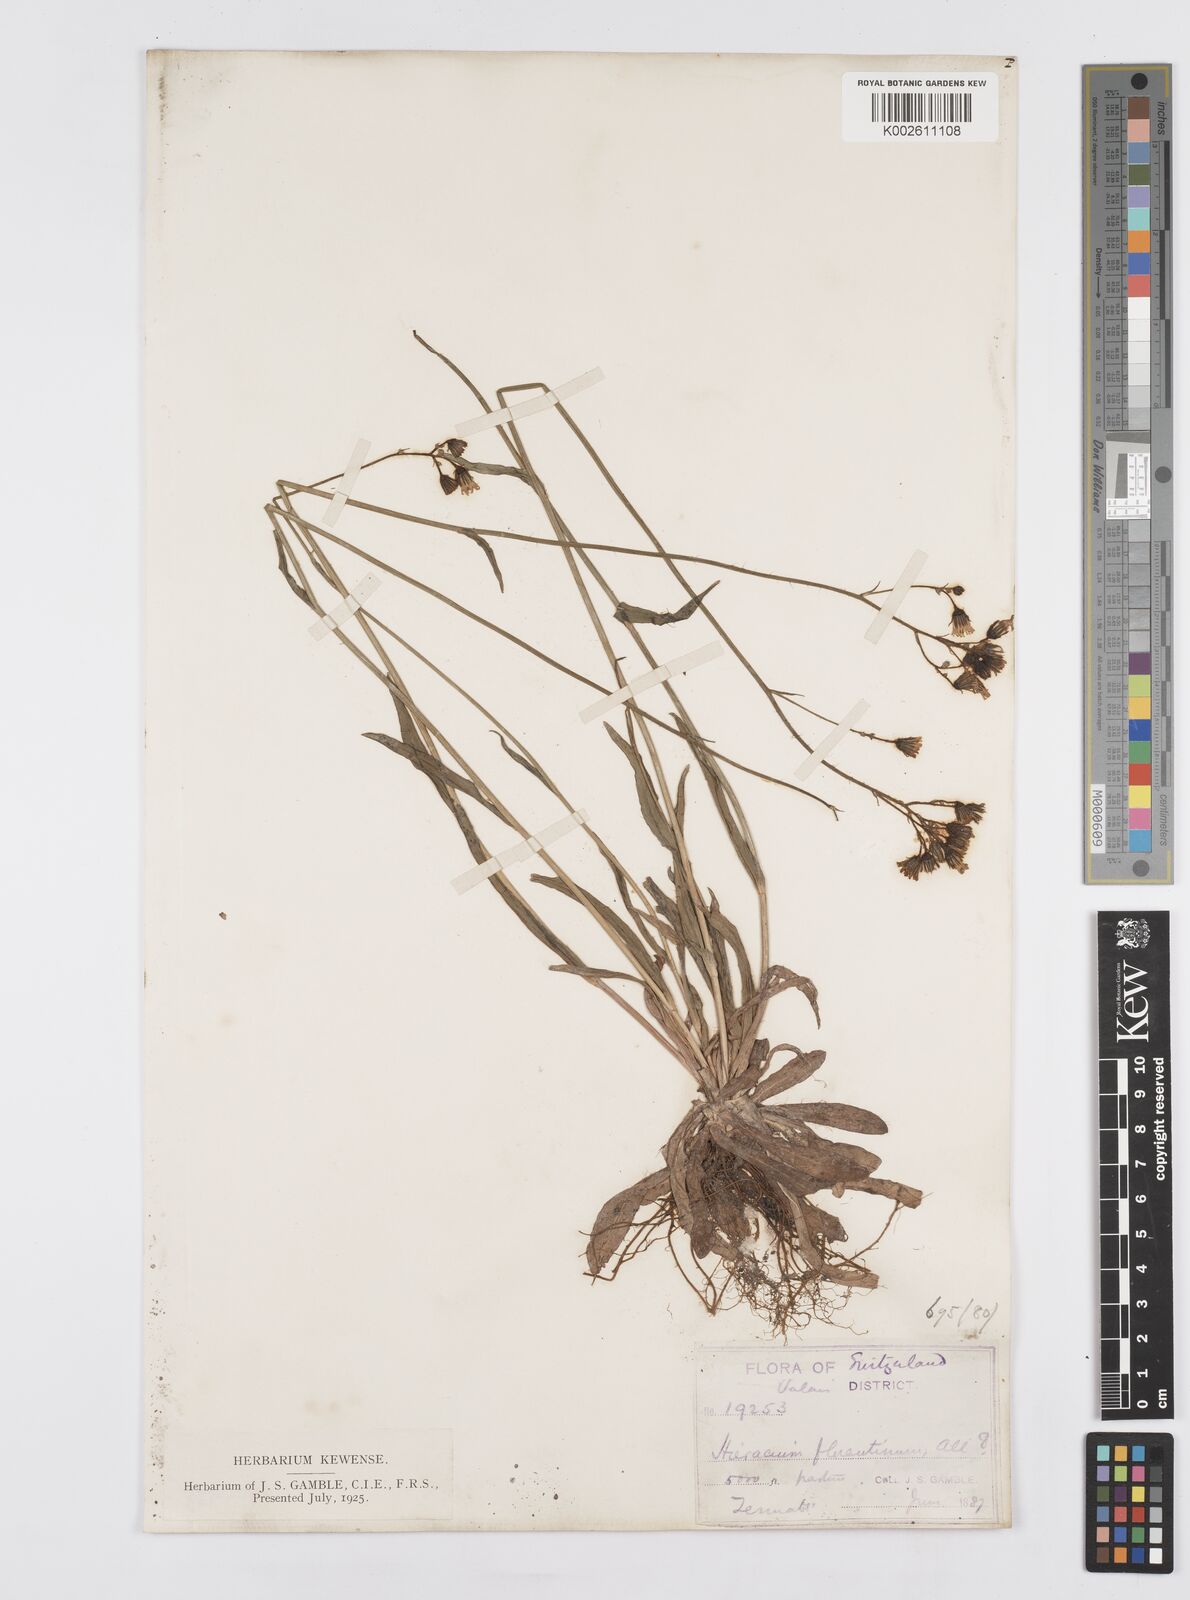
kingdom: Plantae
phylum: Tracheophyta
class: Magnoliopsida
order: Asterales
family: Asteraceae
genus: Pilosella
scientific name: Pilosella piloselloides
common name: Glaucous king-devil
